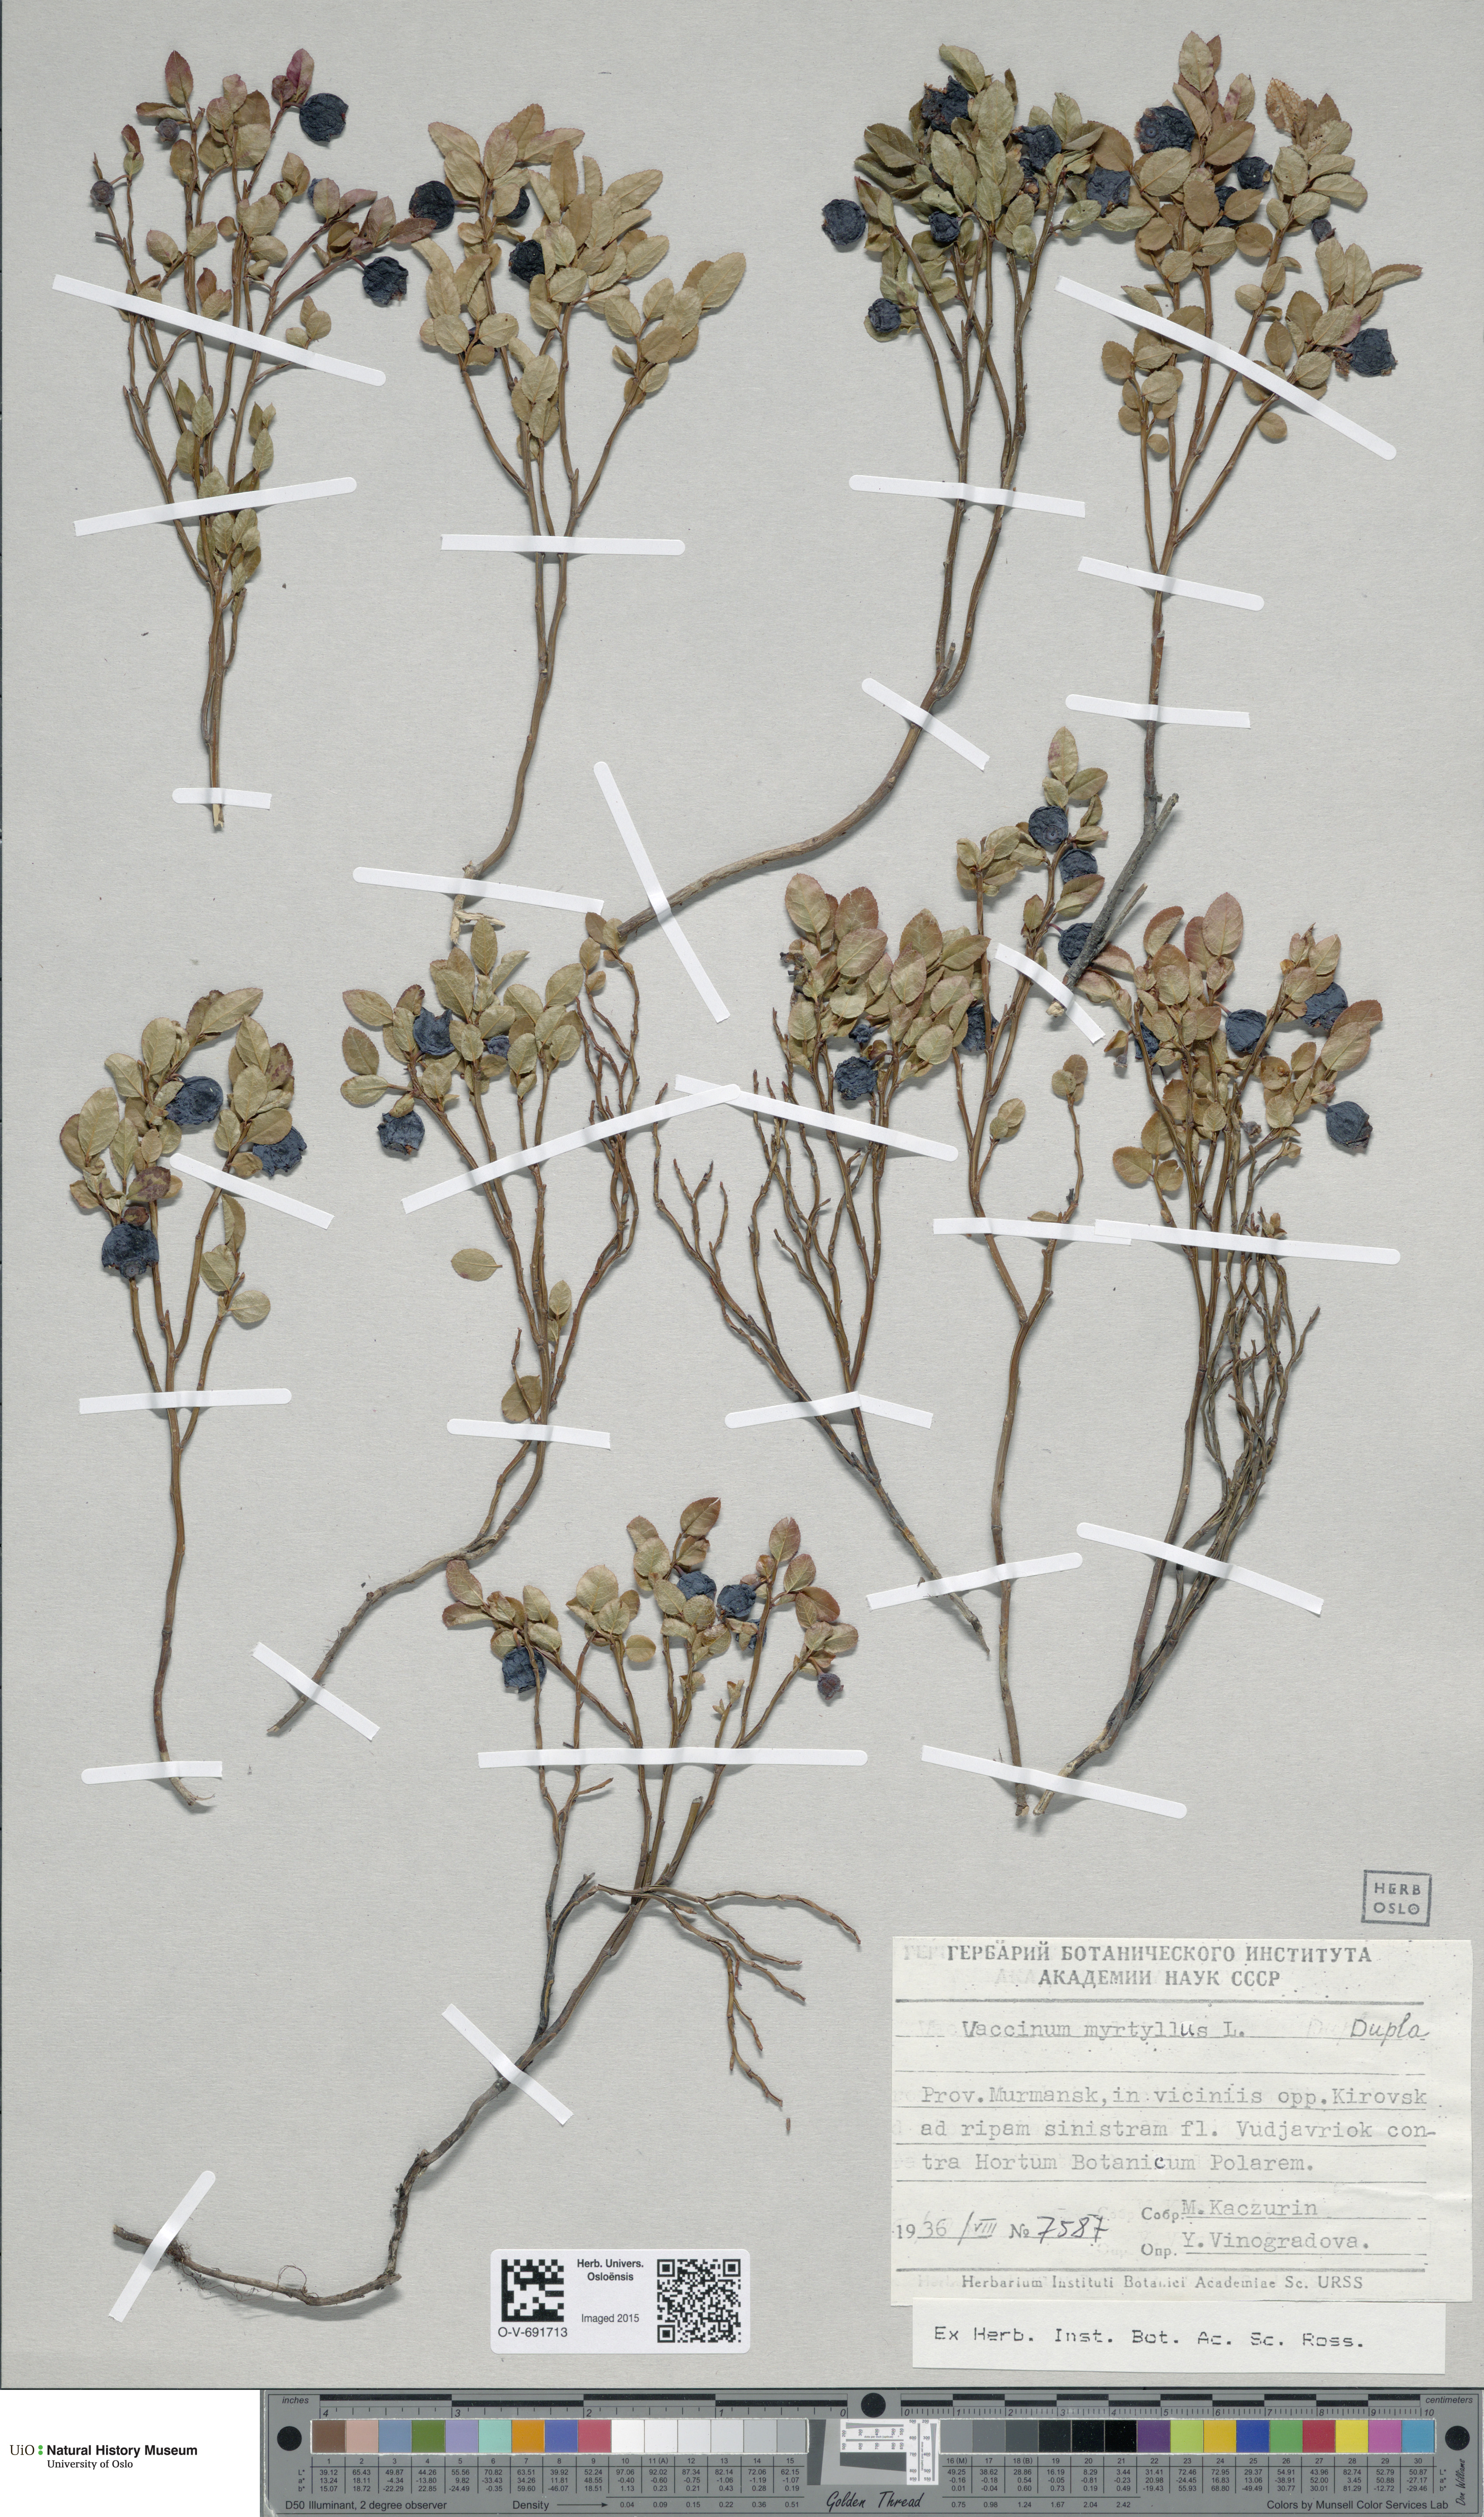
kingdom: Plantae
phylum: Tracheophyta
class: Magnoliopsida
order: Ericales
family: Ericaceae
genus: Vaccinium
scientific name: Vaccinium myrtillus
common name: Bilberry
